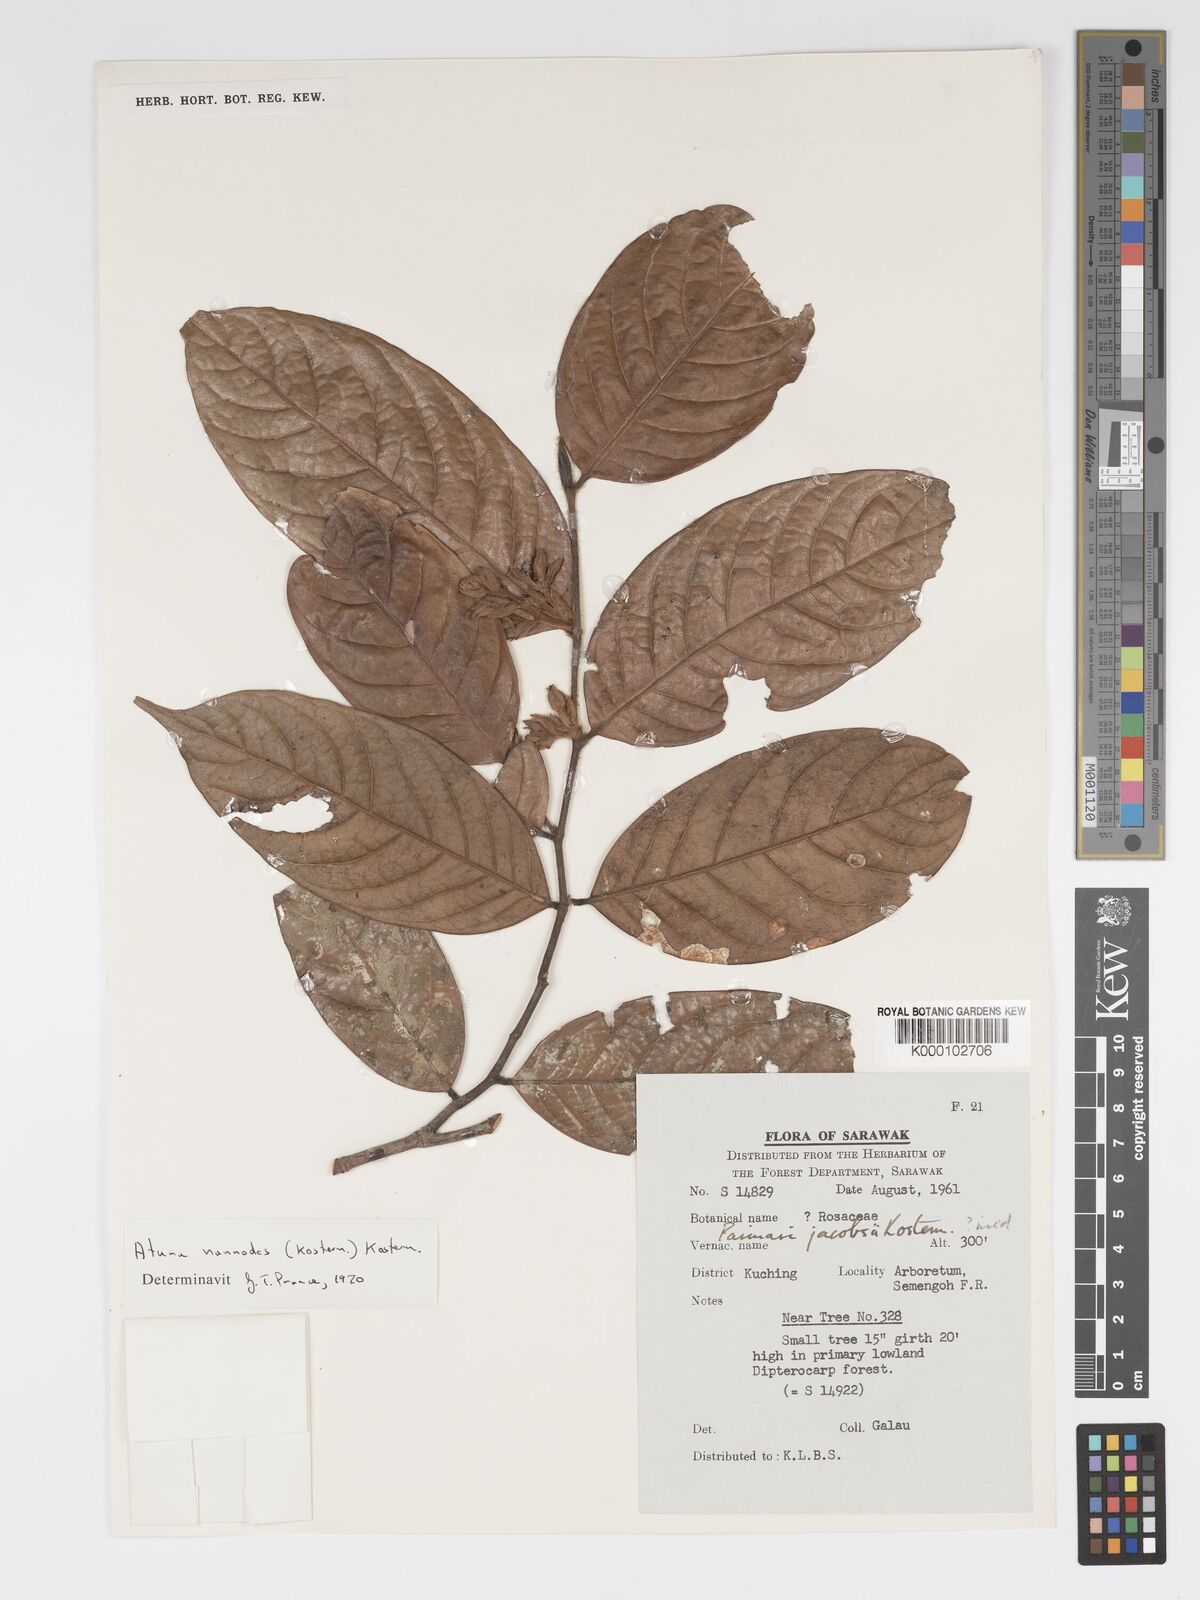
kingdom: Plantae
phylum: Tracheophyta
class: Magnoliopsida
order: Malpighiales
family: Chrysobalanaceae
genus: Atuna
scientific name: Atuna nannodes
